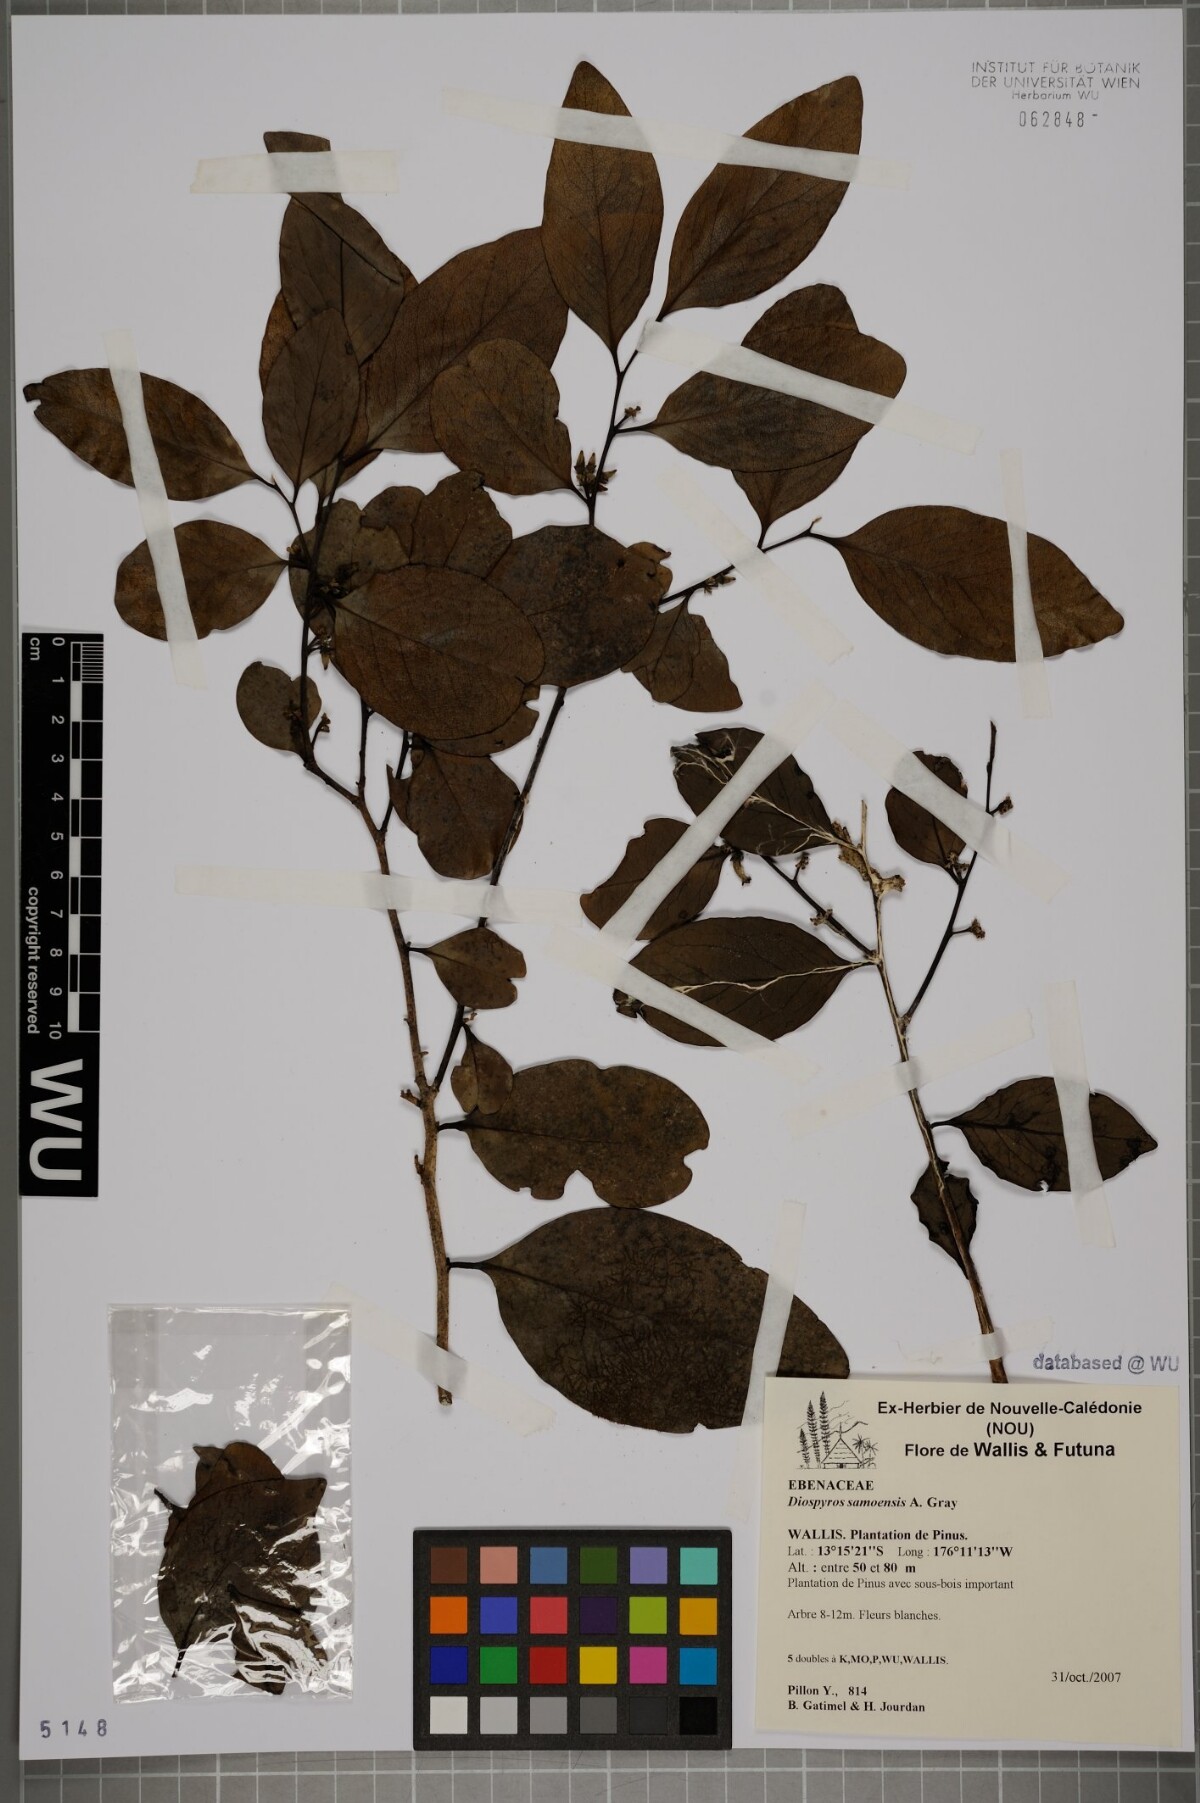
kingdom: Plantae
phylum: Tracheophyta
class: Magnoliopsida
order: Ericales
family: Ebenaceae
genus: Diospyros
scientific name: Diospyros samoensis
